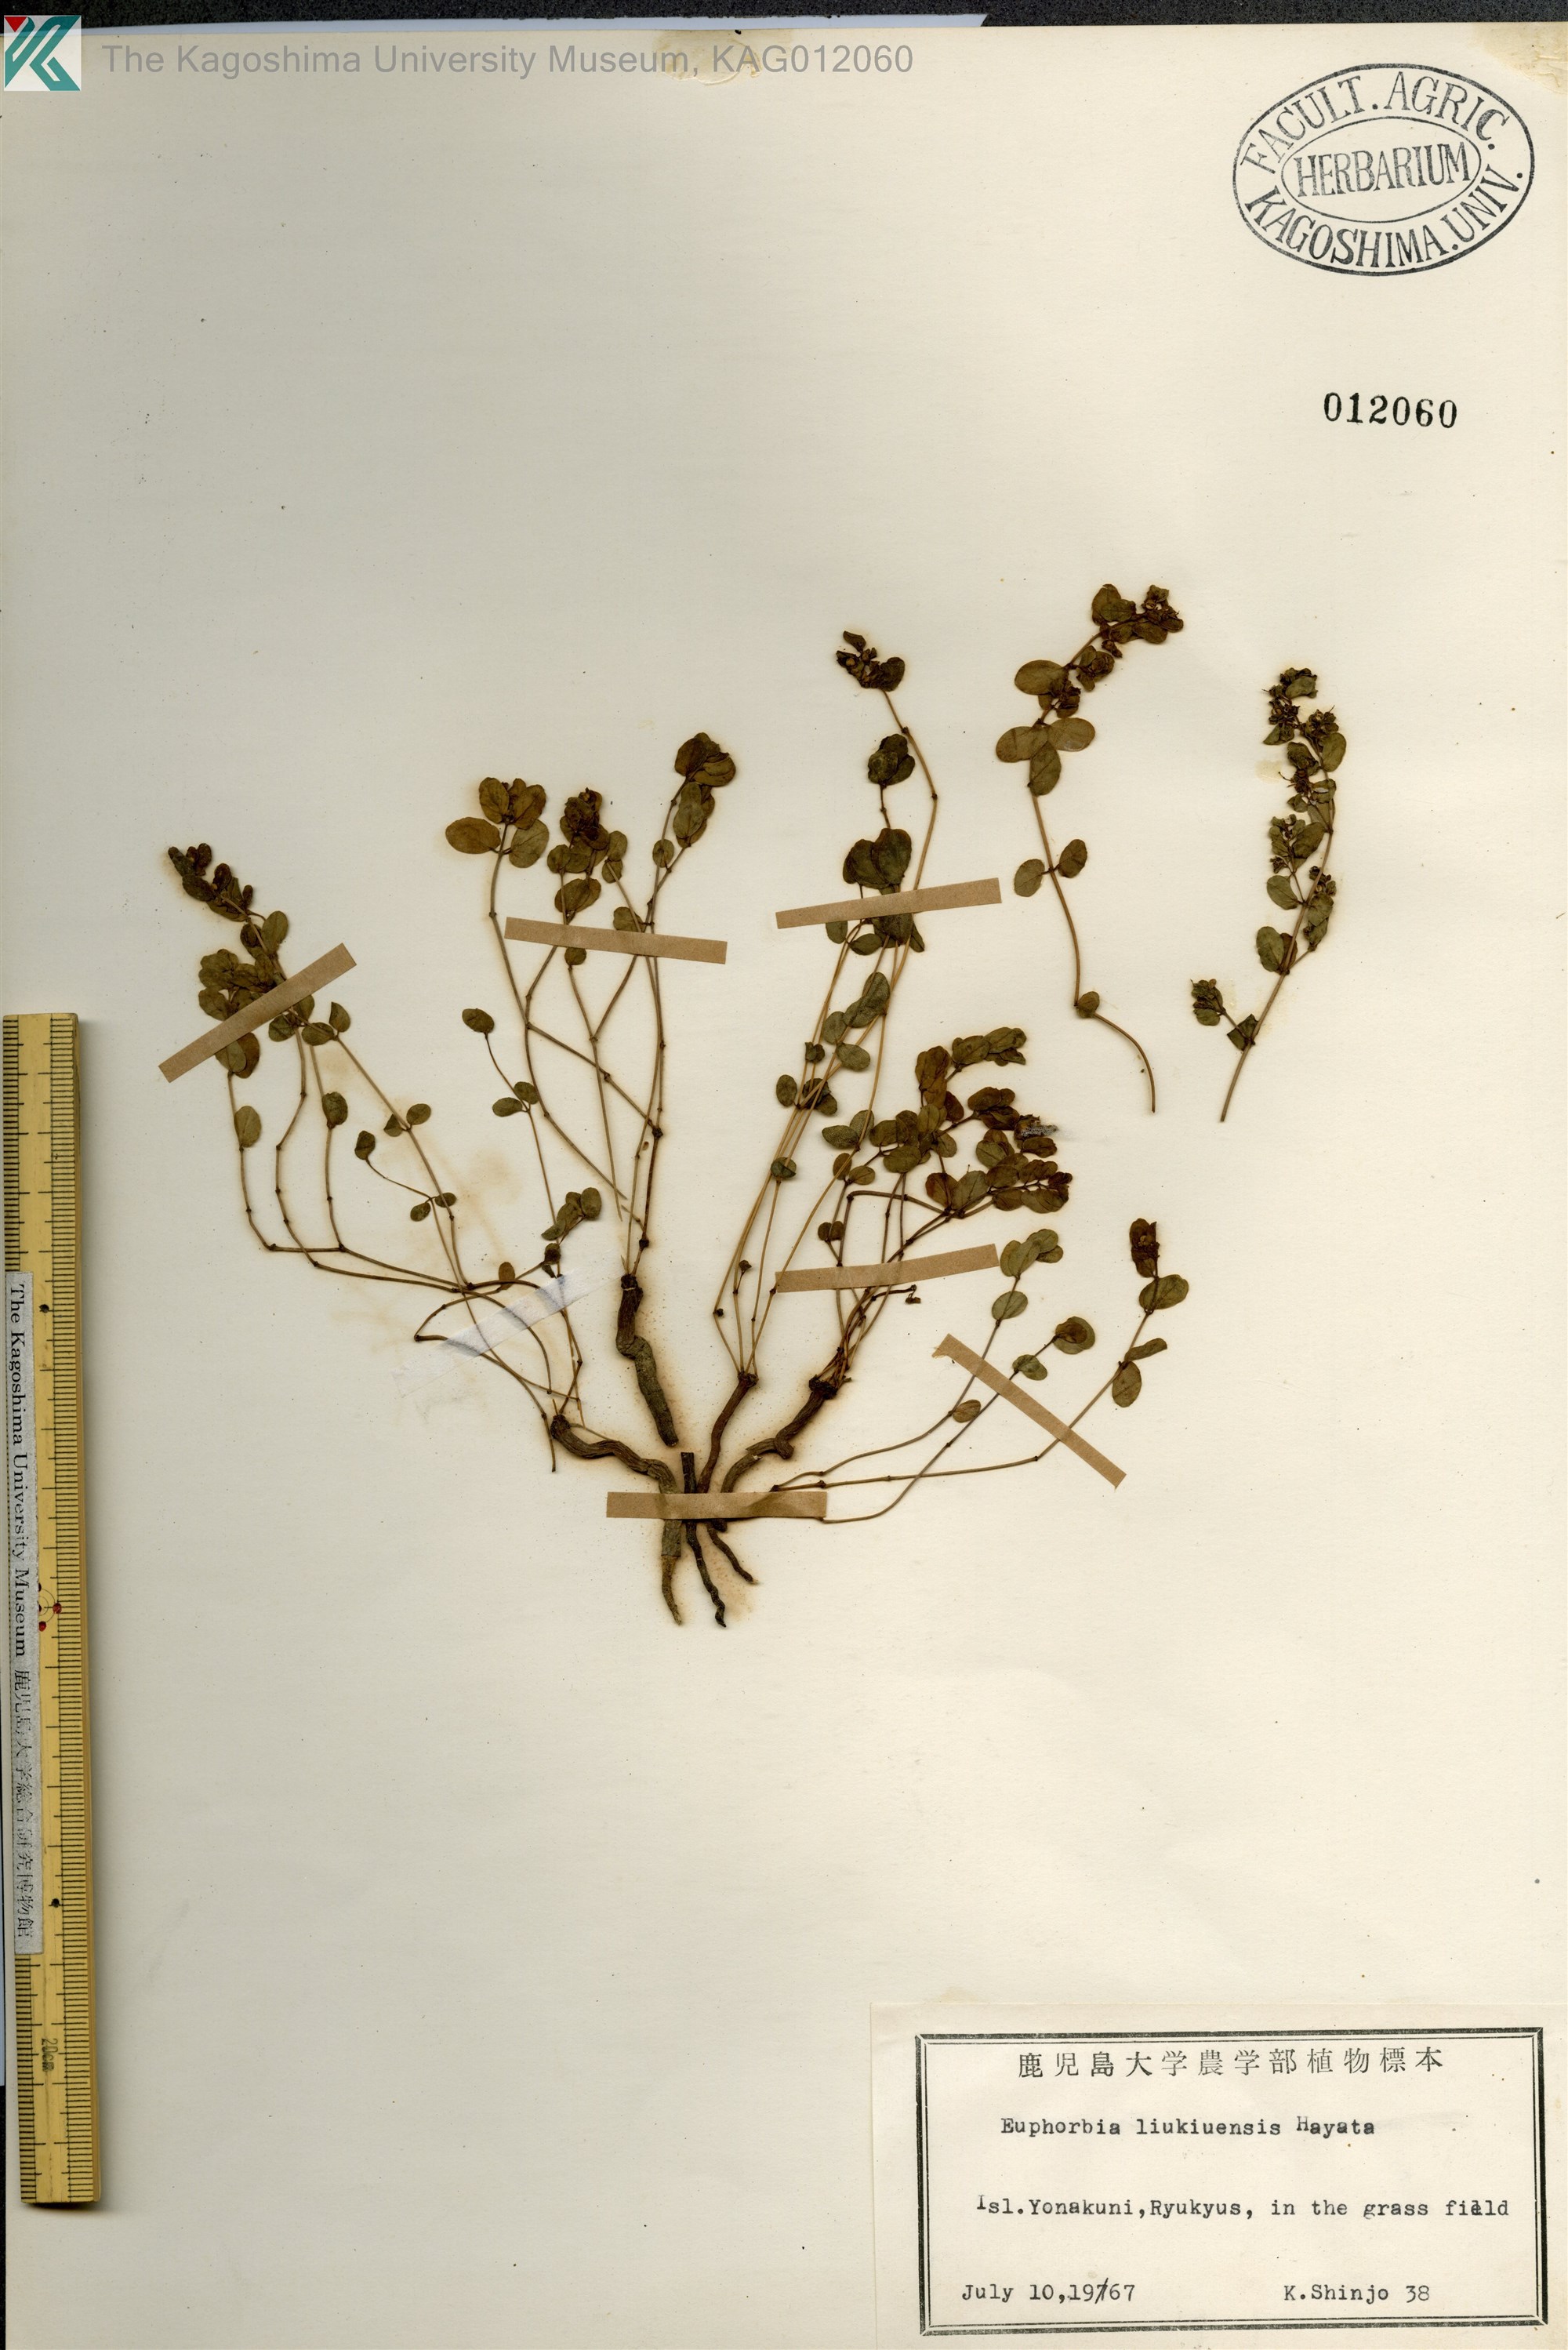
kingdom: Plantae
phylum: Tracheophyta
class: Magnoliopsida
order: Malpighiales
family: Euphorbiaceae
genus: Euphorbia
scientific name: Euphorbia liukiuensis
